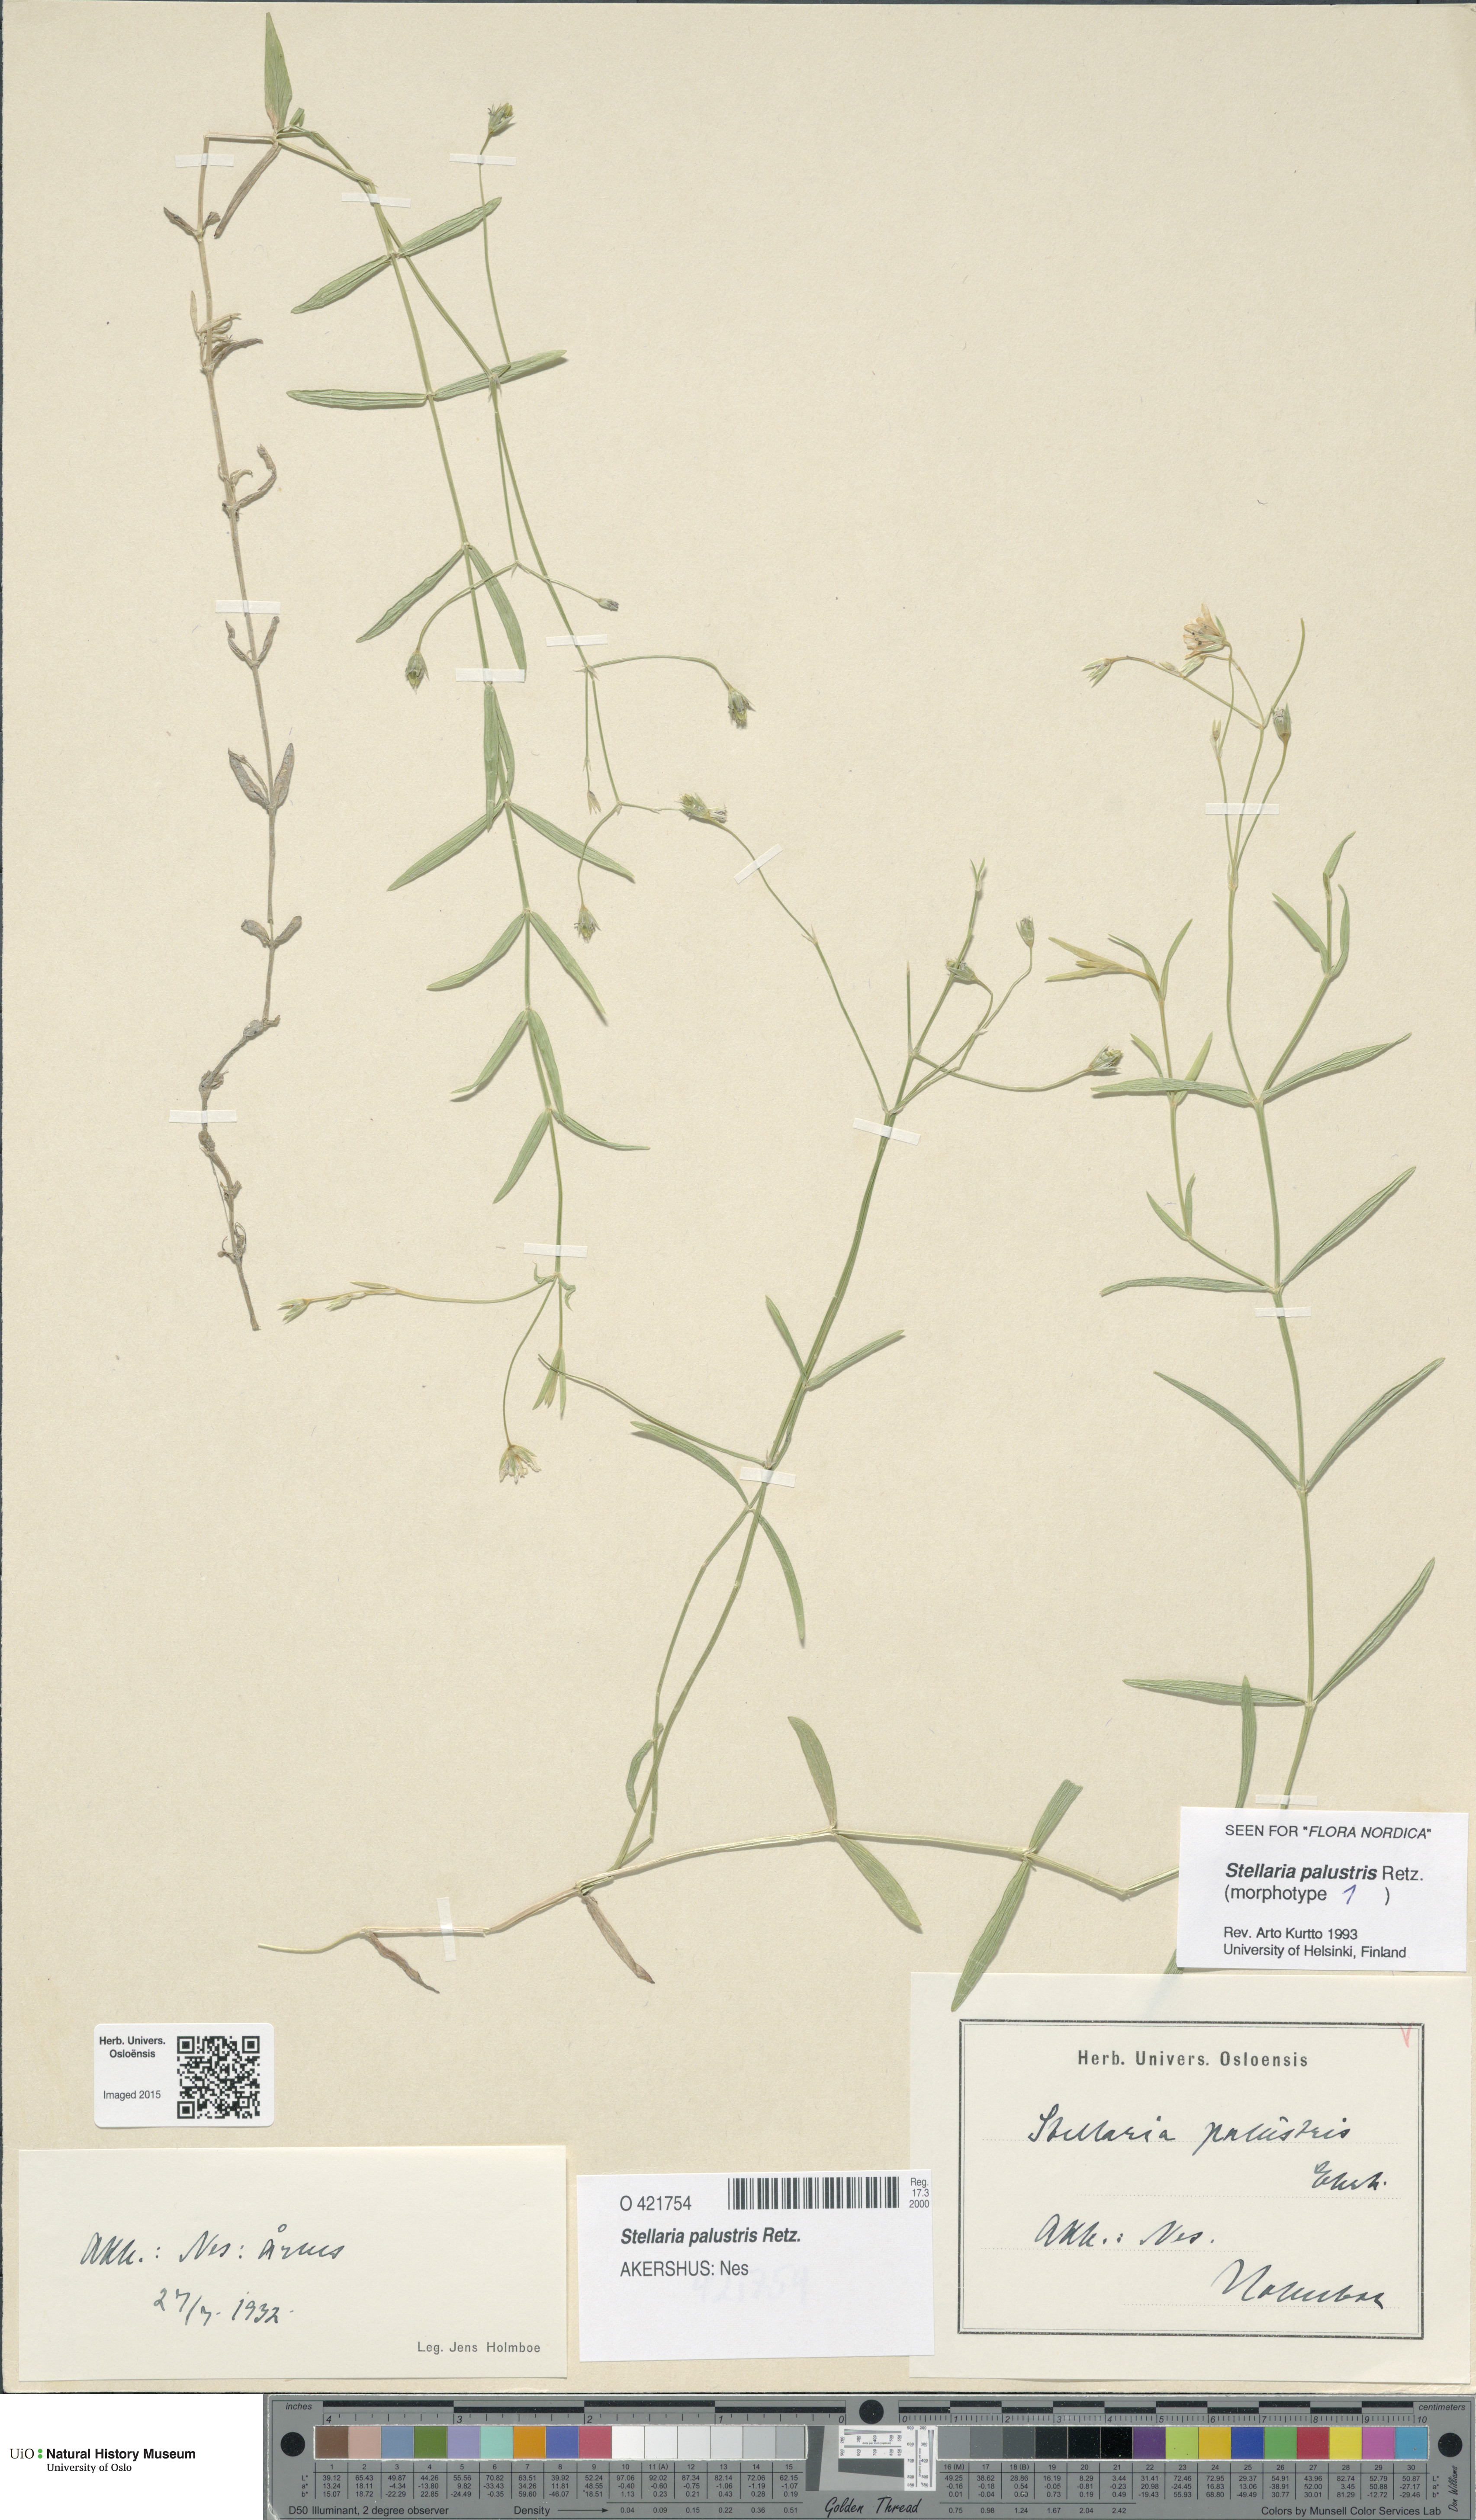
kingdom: Plantae
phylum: Tracheophyta
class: Magnoliopsida
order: Caryophyllales
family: Caryophyllaceae
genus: Stellaria
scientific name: Stellaria palustris
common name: Marsh stitchwort
